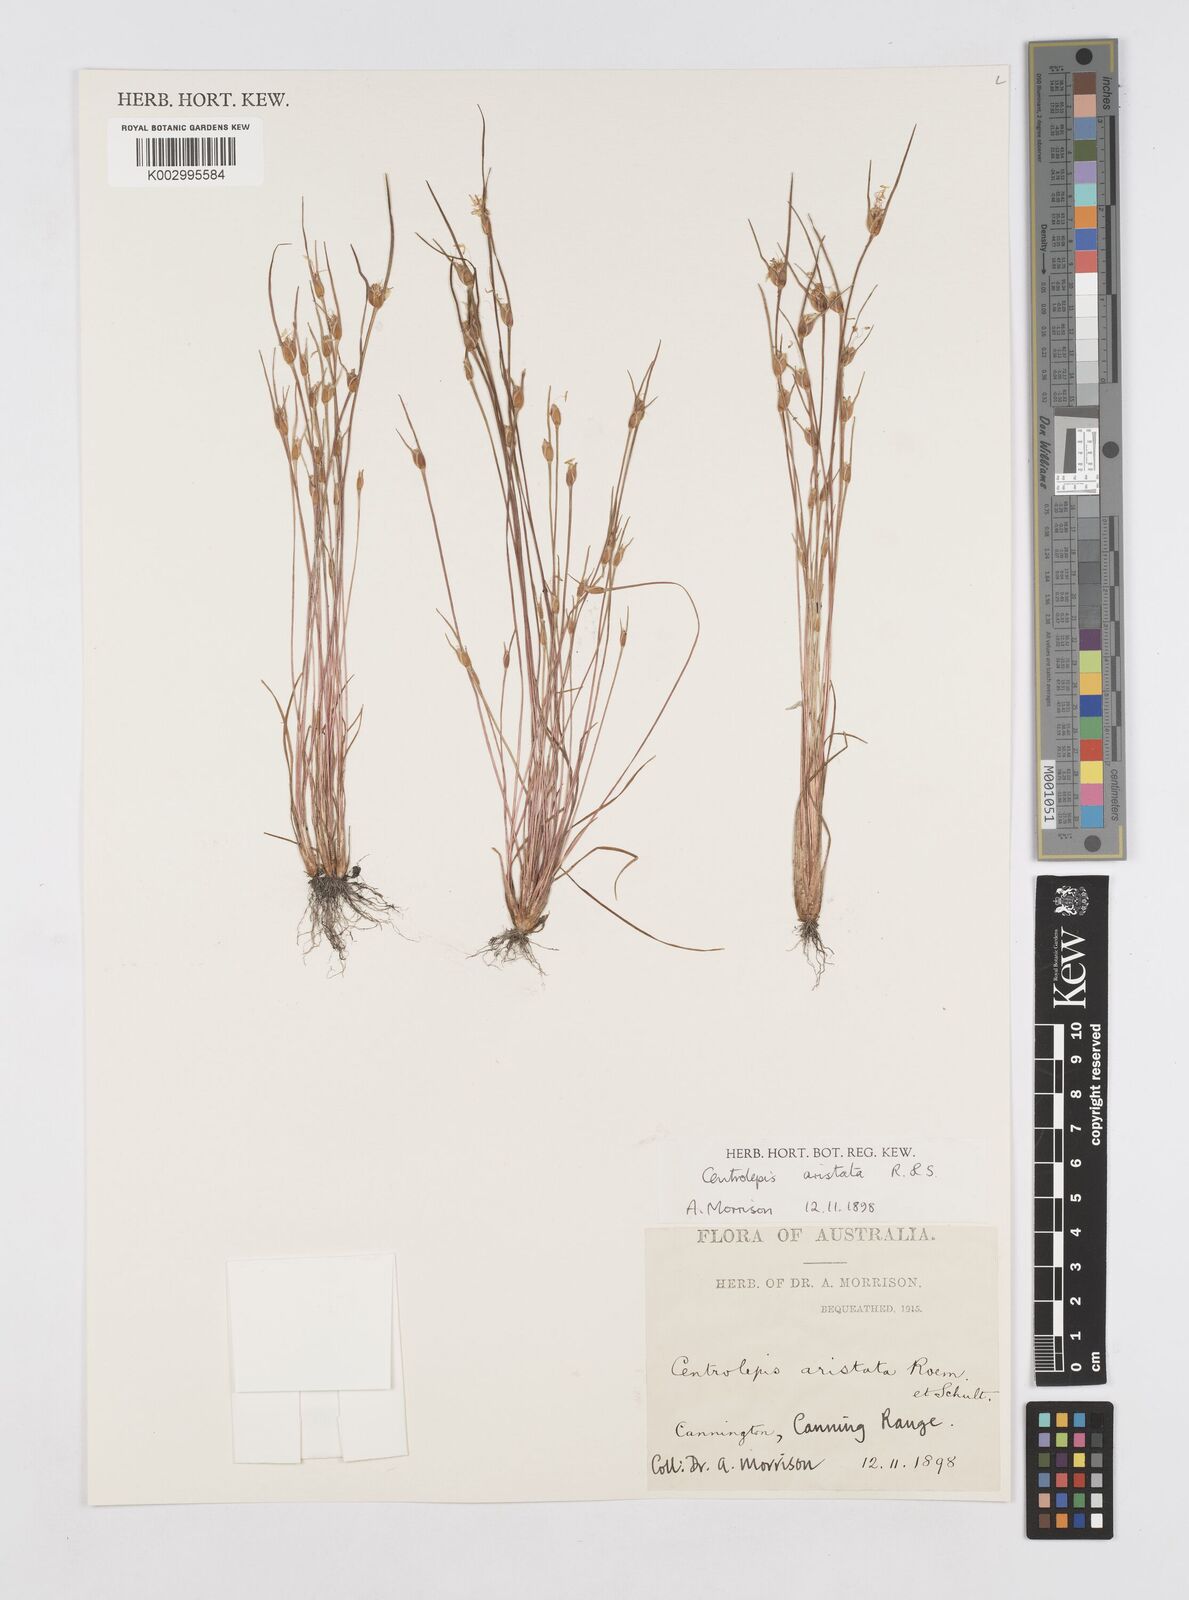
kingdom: Plantae
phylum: Tracheophyta
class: Liliopsida
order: Poales
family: Restionaceae
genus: Centrolepis
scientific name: Centrolepis aristata
